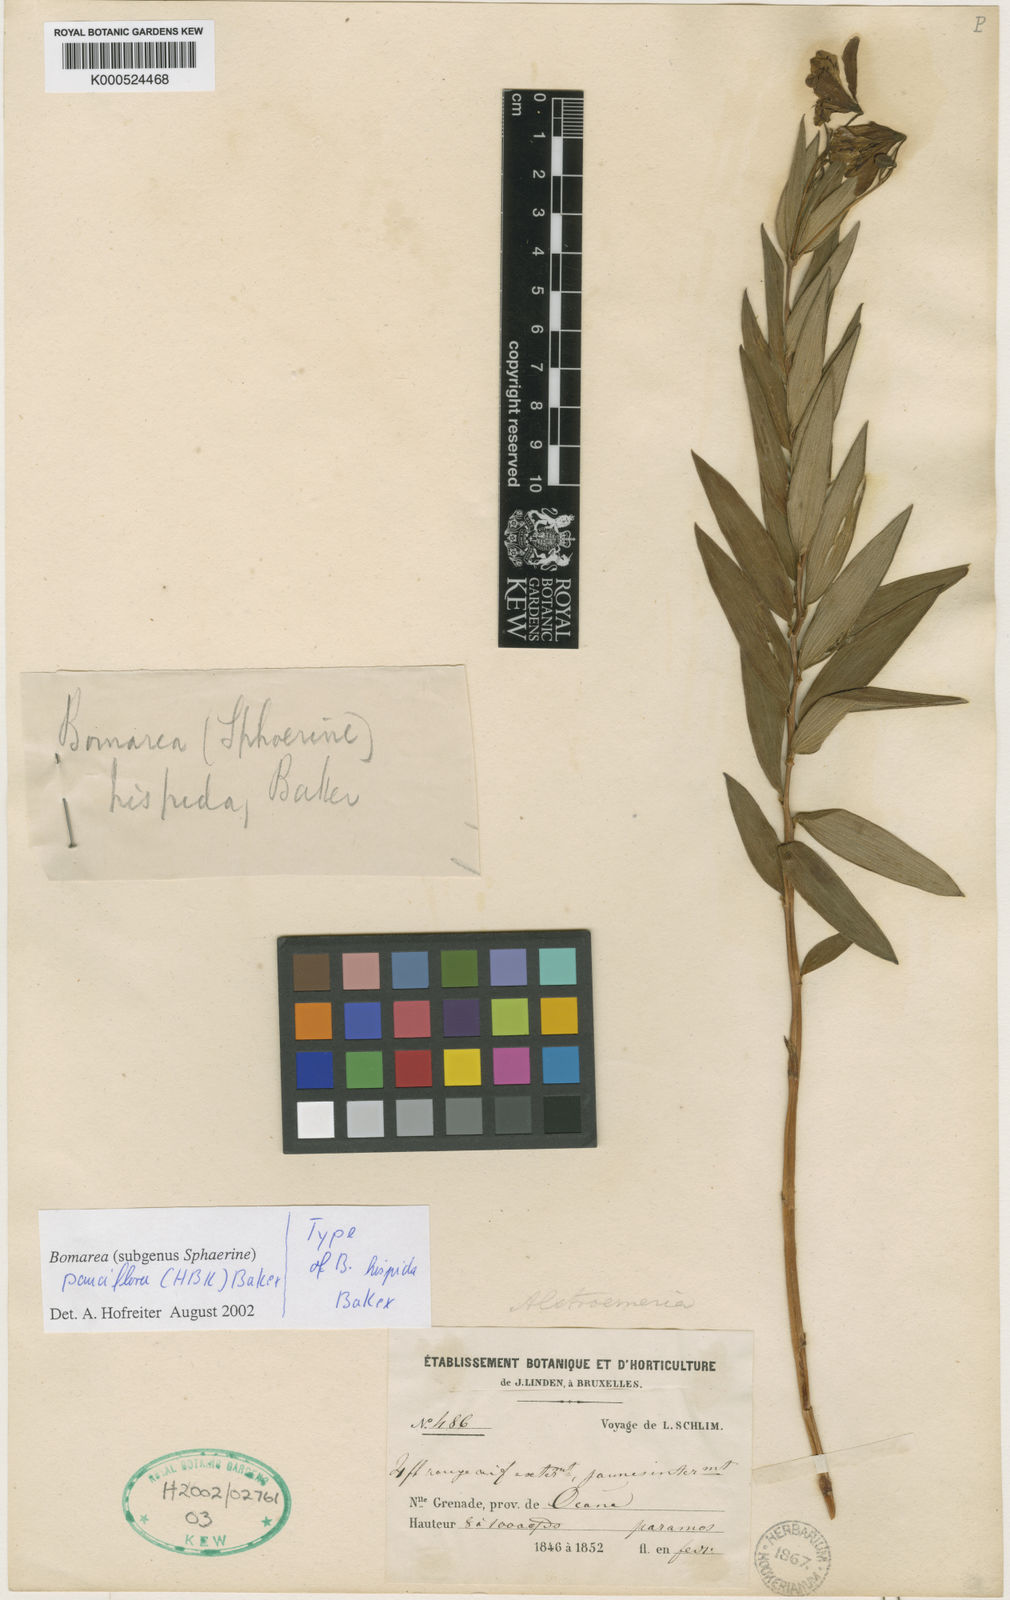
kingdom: Plantae
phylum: Tracheophyta
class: Liliopsida
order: Liliales
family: Alstroemeriaceae
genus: Bomarea
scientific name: Bomarea pauciflora
